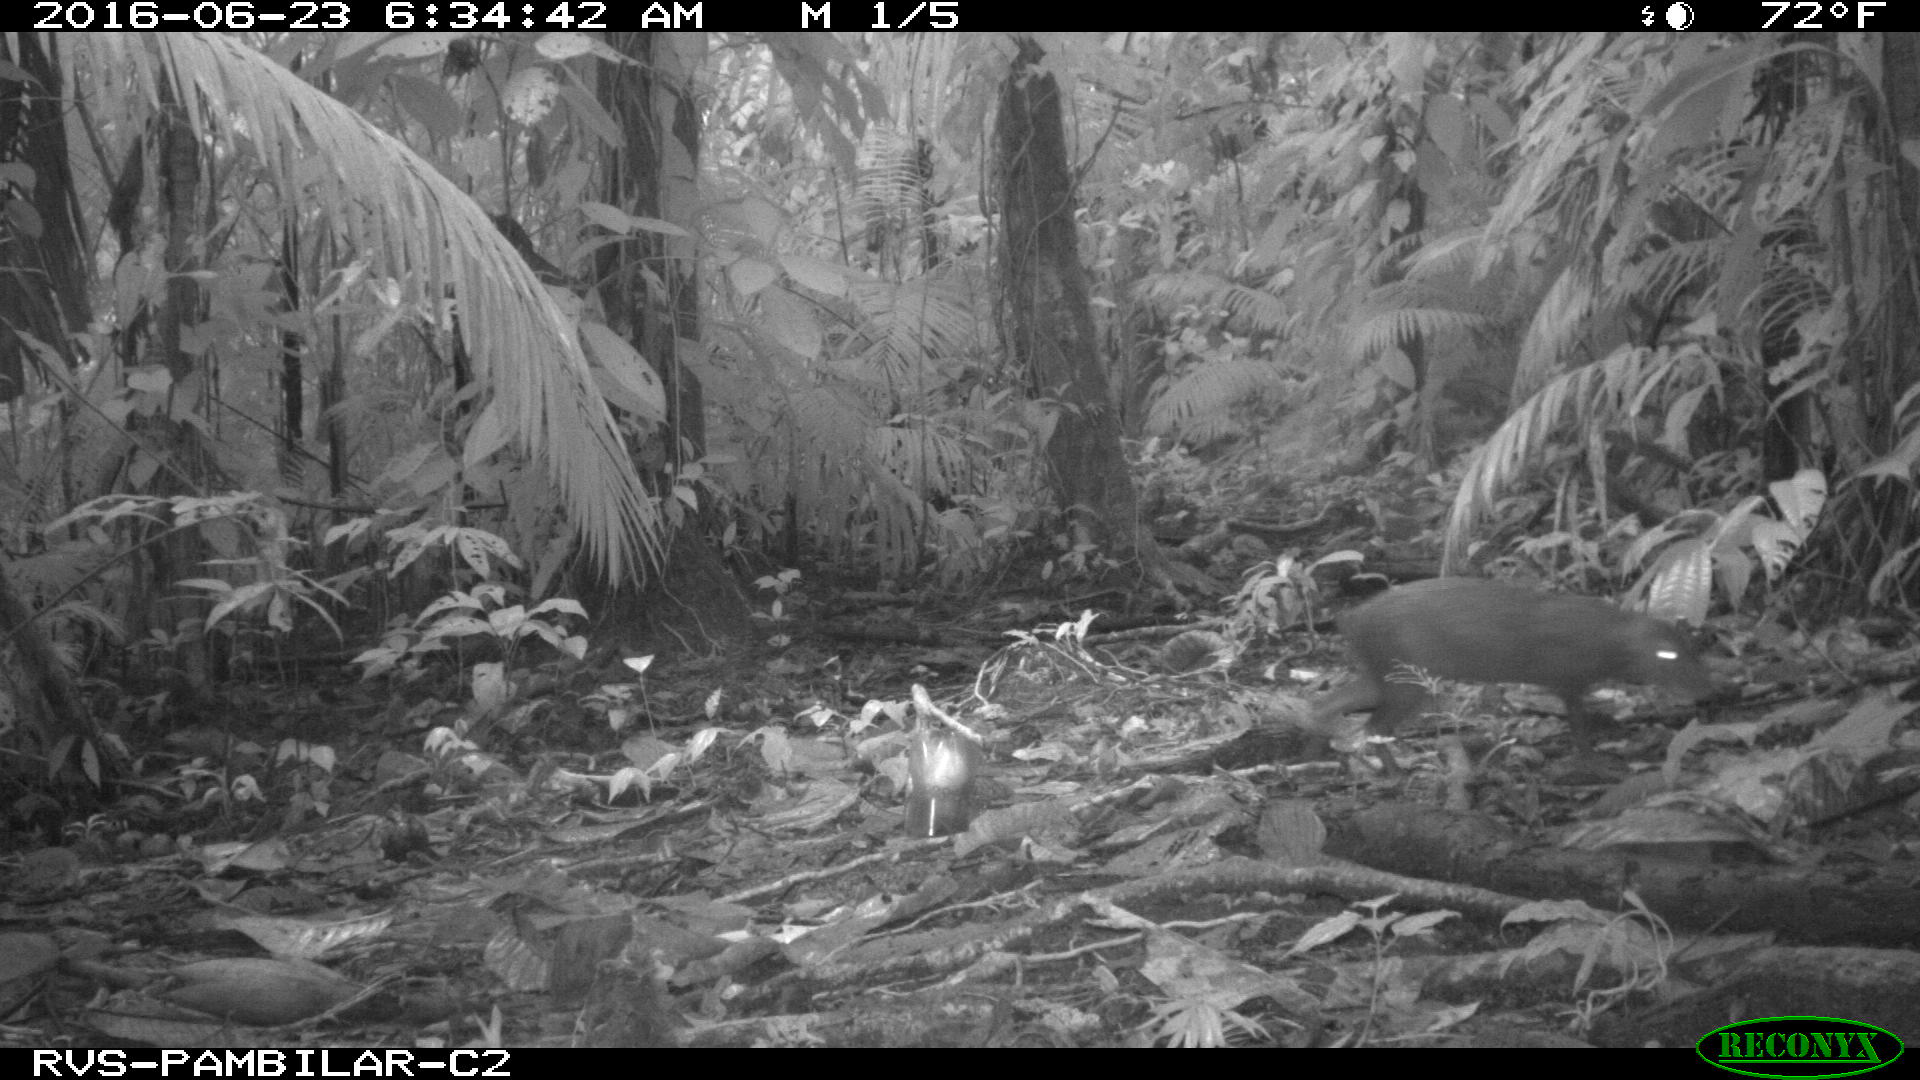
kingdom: Animalia
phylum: Chordata
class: Mammalia
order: Rodentia
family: Dasyproctidae
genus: Dasyprocta
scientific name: Dasyprocta punctata
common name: Central american agouti
